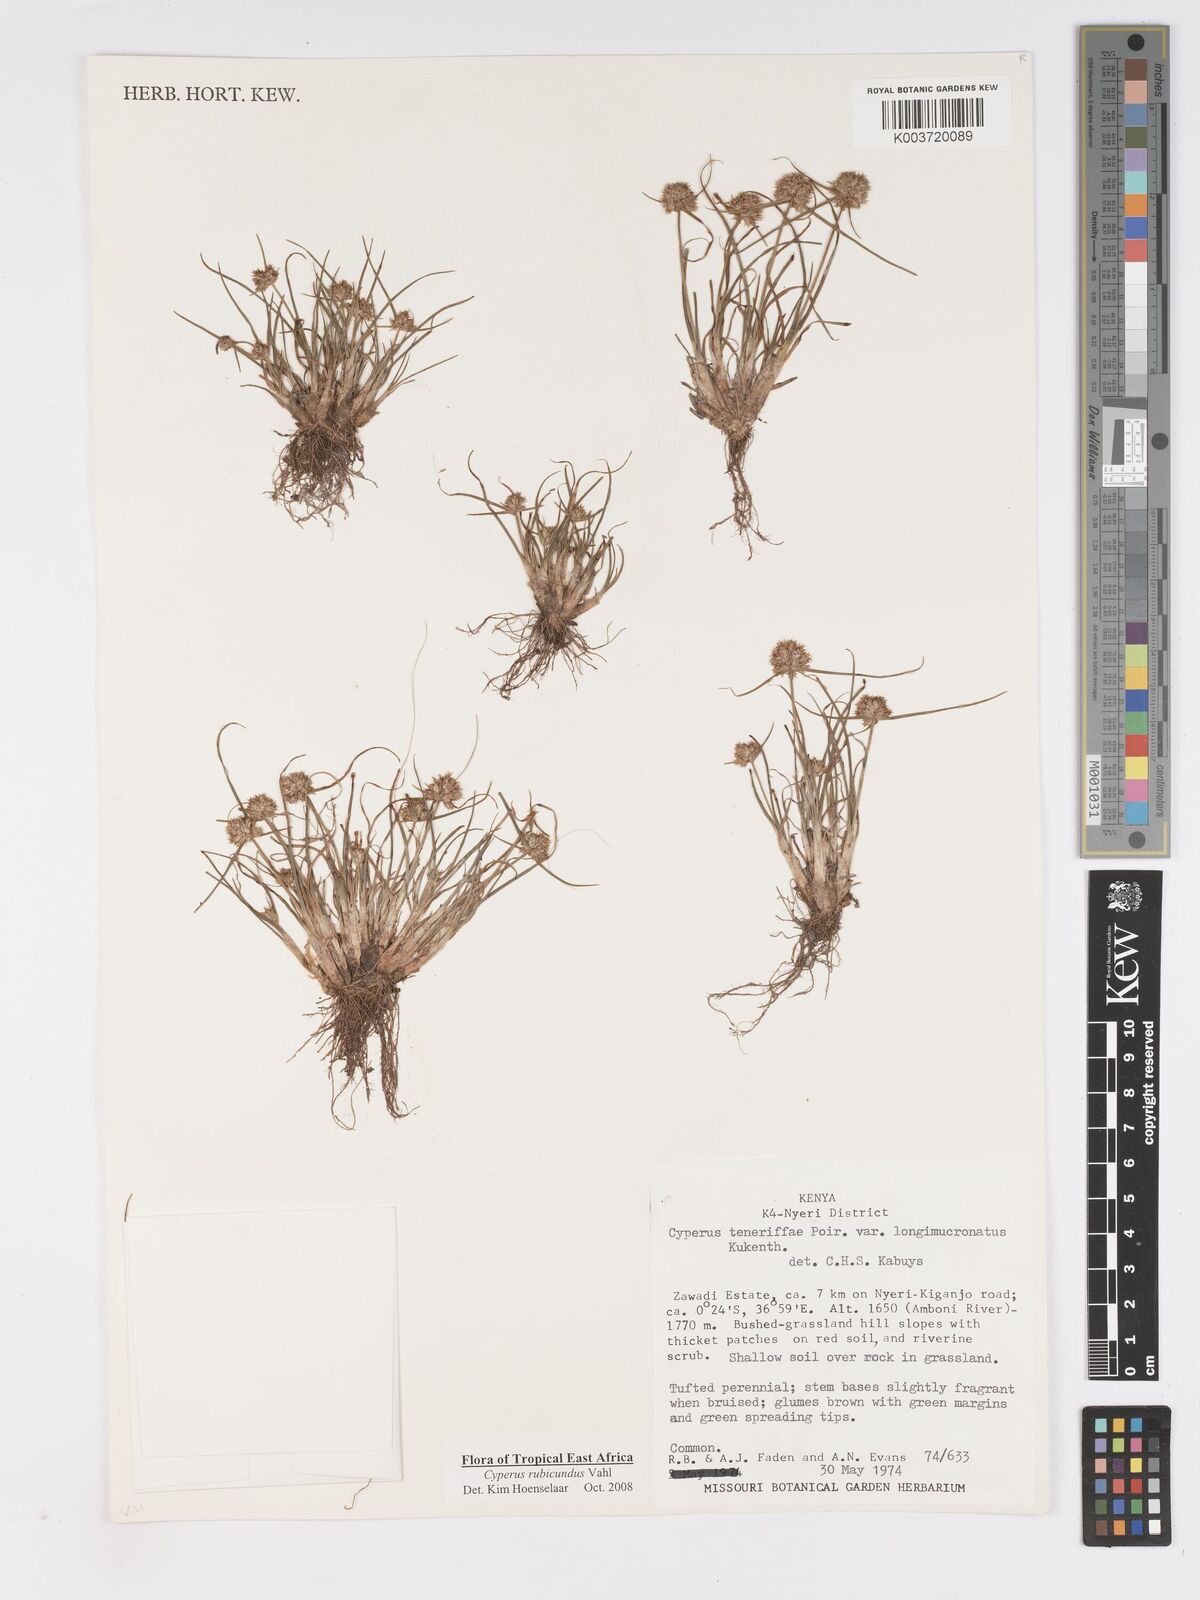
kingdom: Plantae
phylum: Tracheophyta
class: Liliopsida
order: Poales
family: Cyperaceae
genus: Cyperus
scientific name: Cyperus rubicundus
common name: Coco-grass
